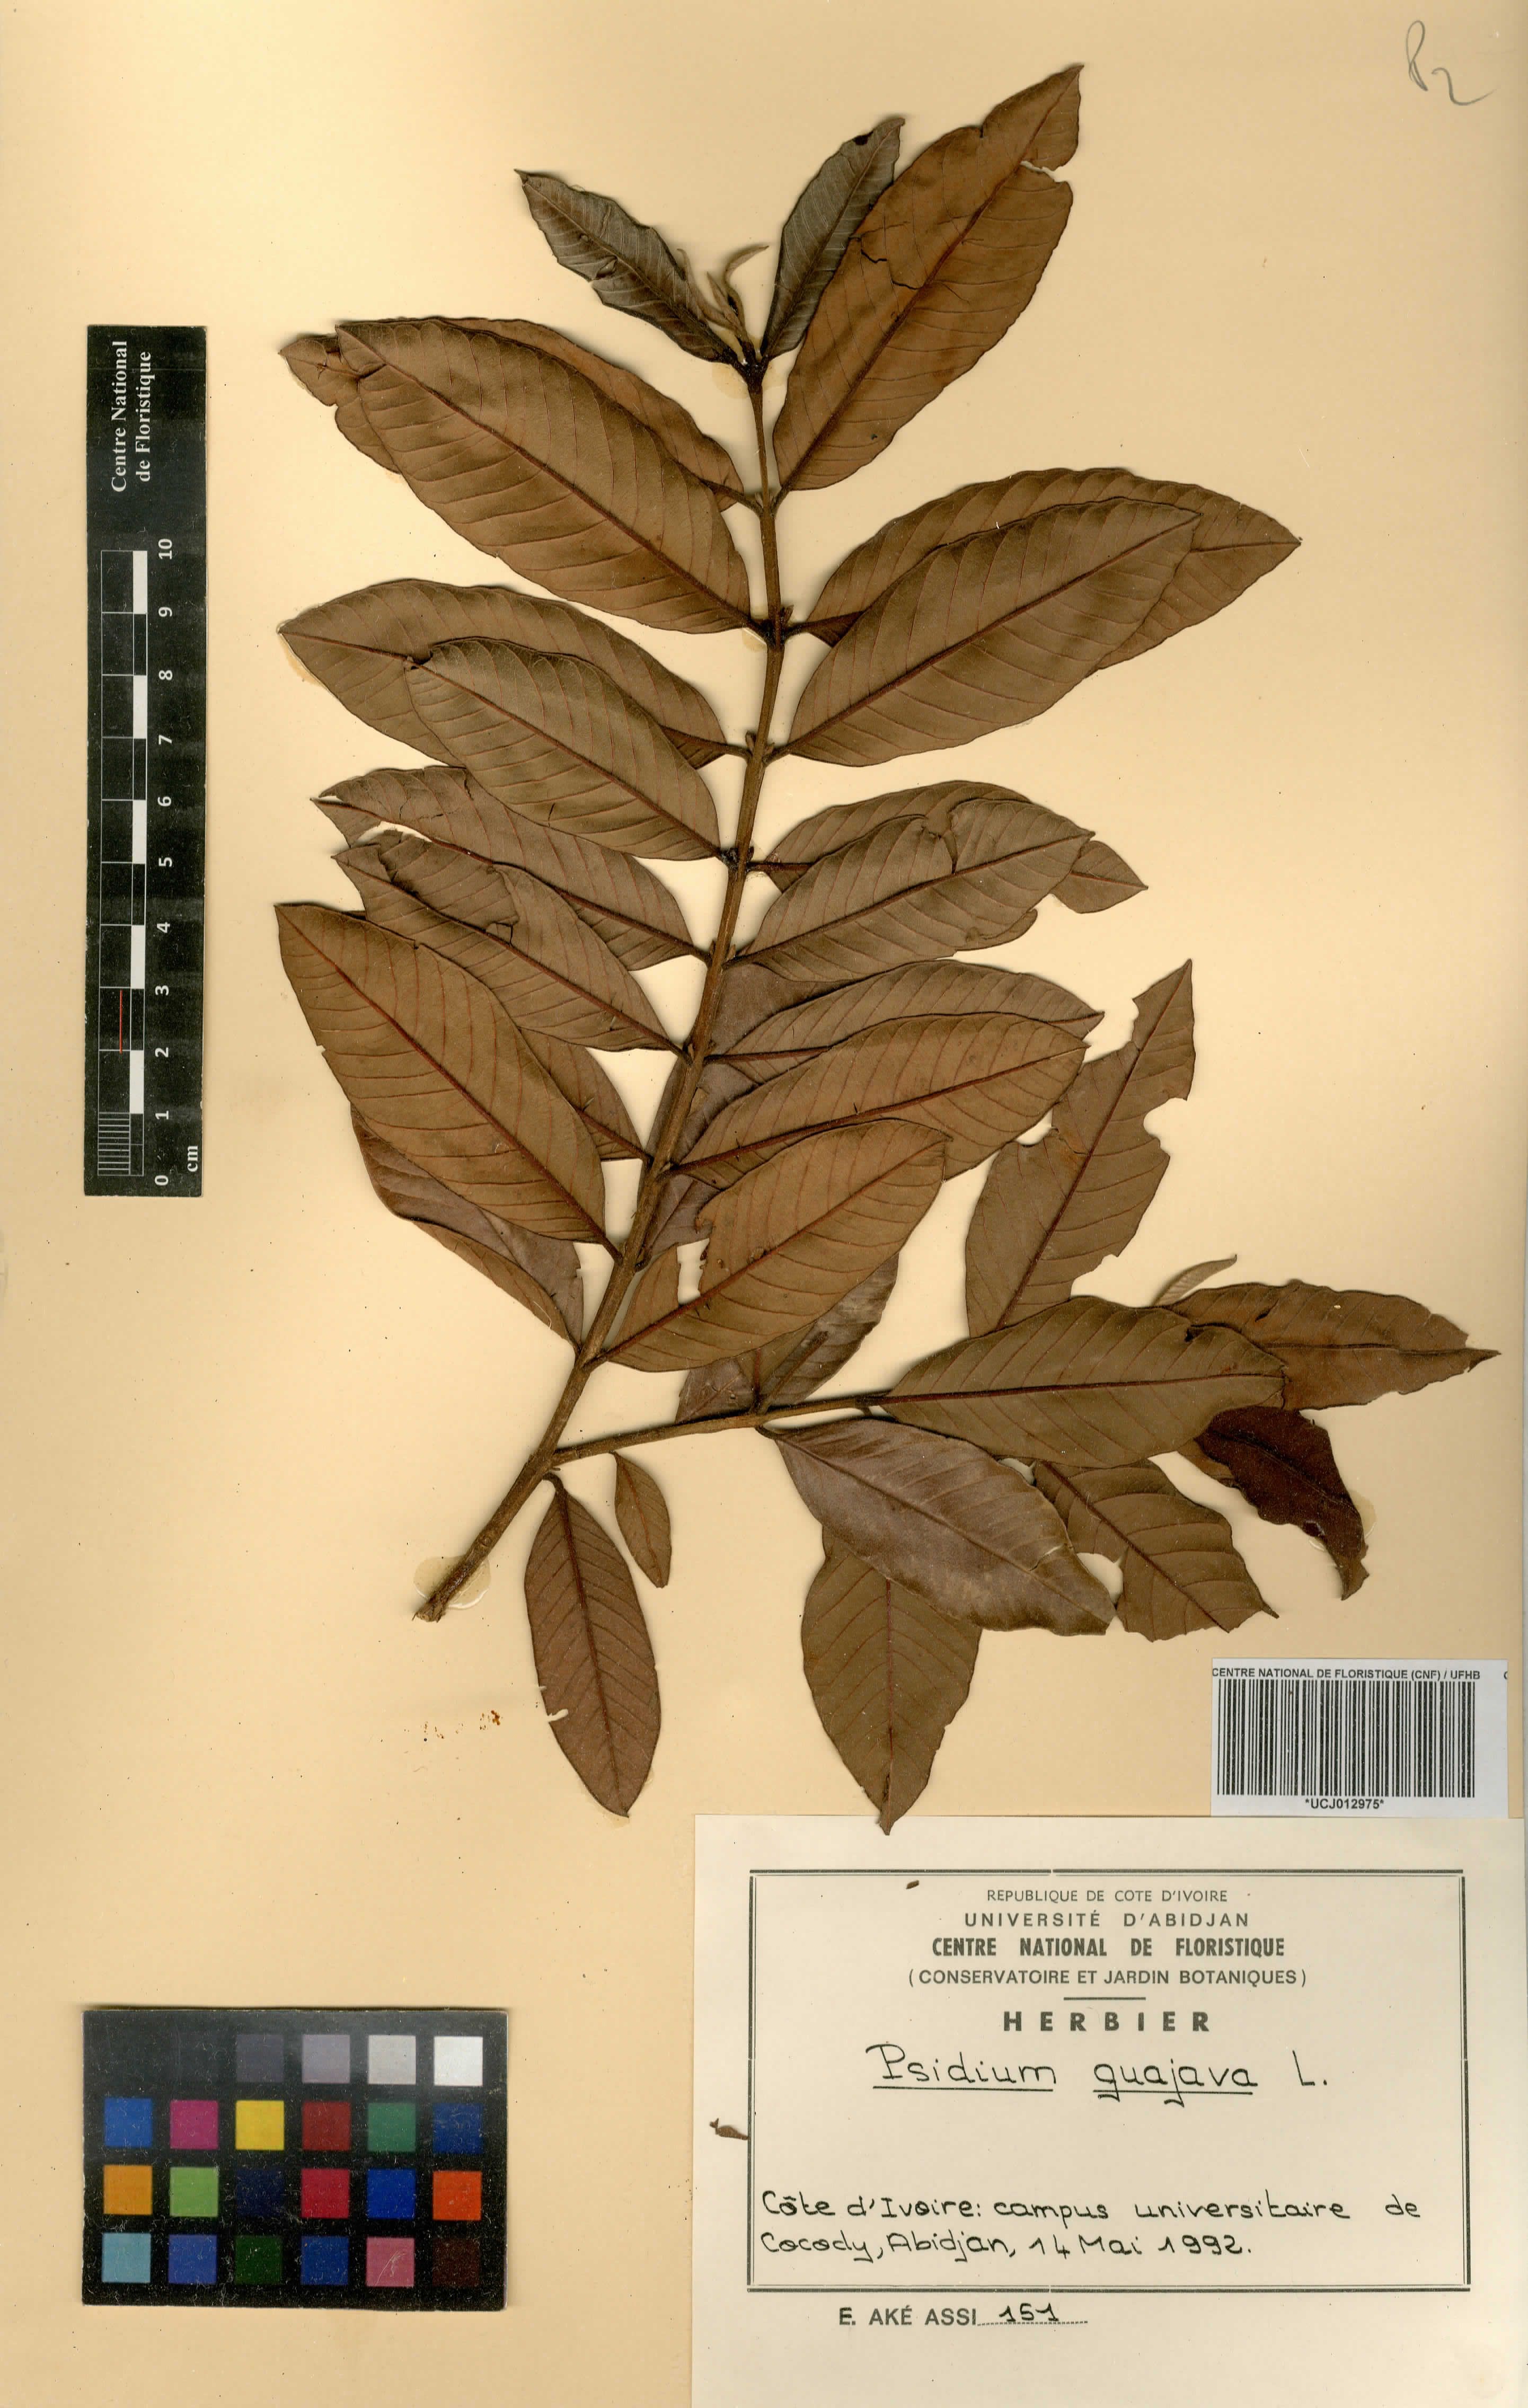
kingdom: Plantae
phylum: Tracheophyta
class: Magnoliopsida
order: Myrtales
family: Myrtaceae
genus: Psidium
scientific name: Psidium guajava
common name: Guava
